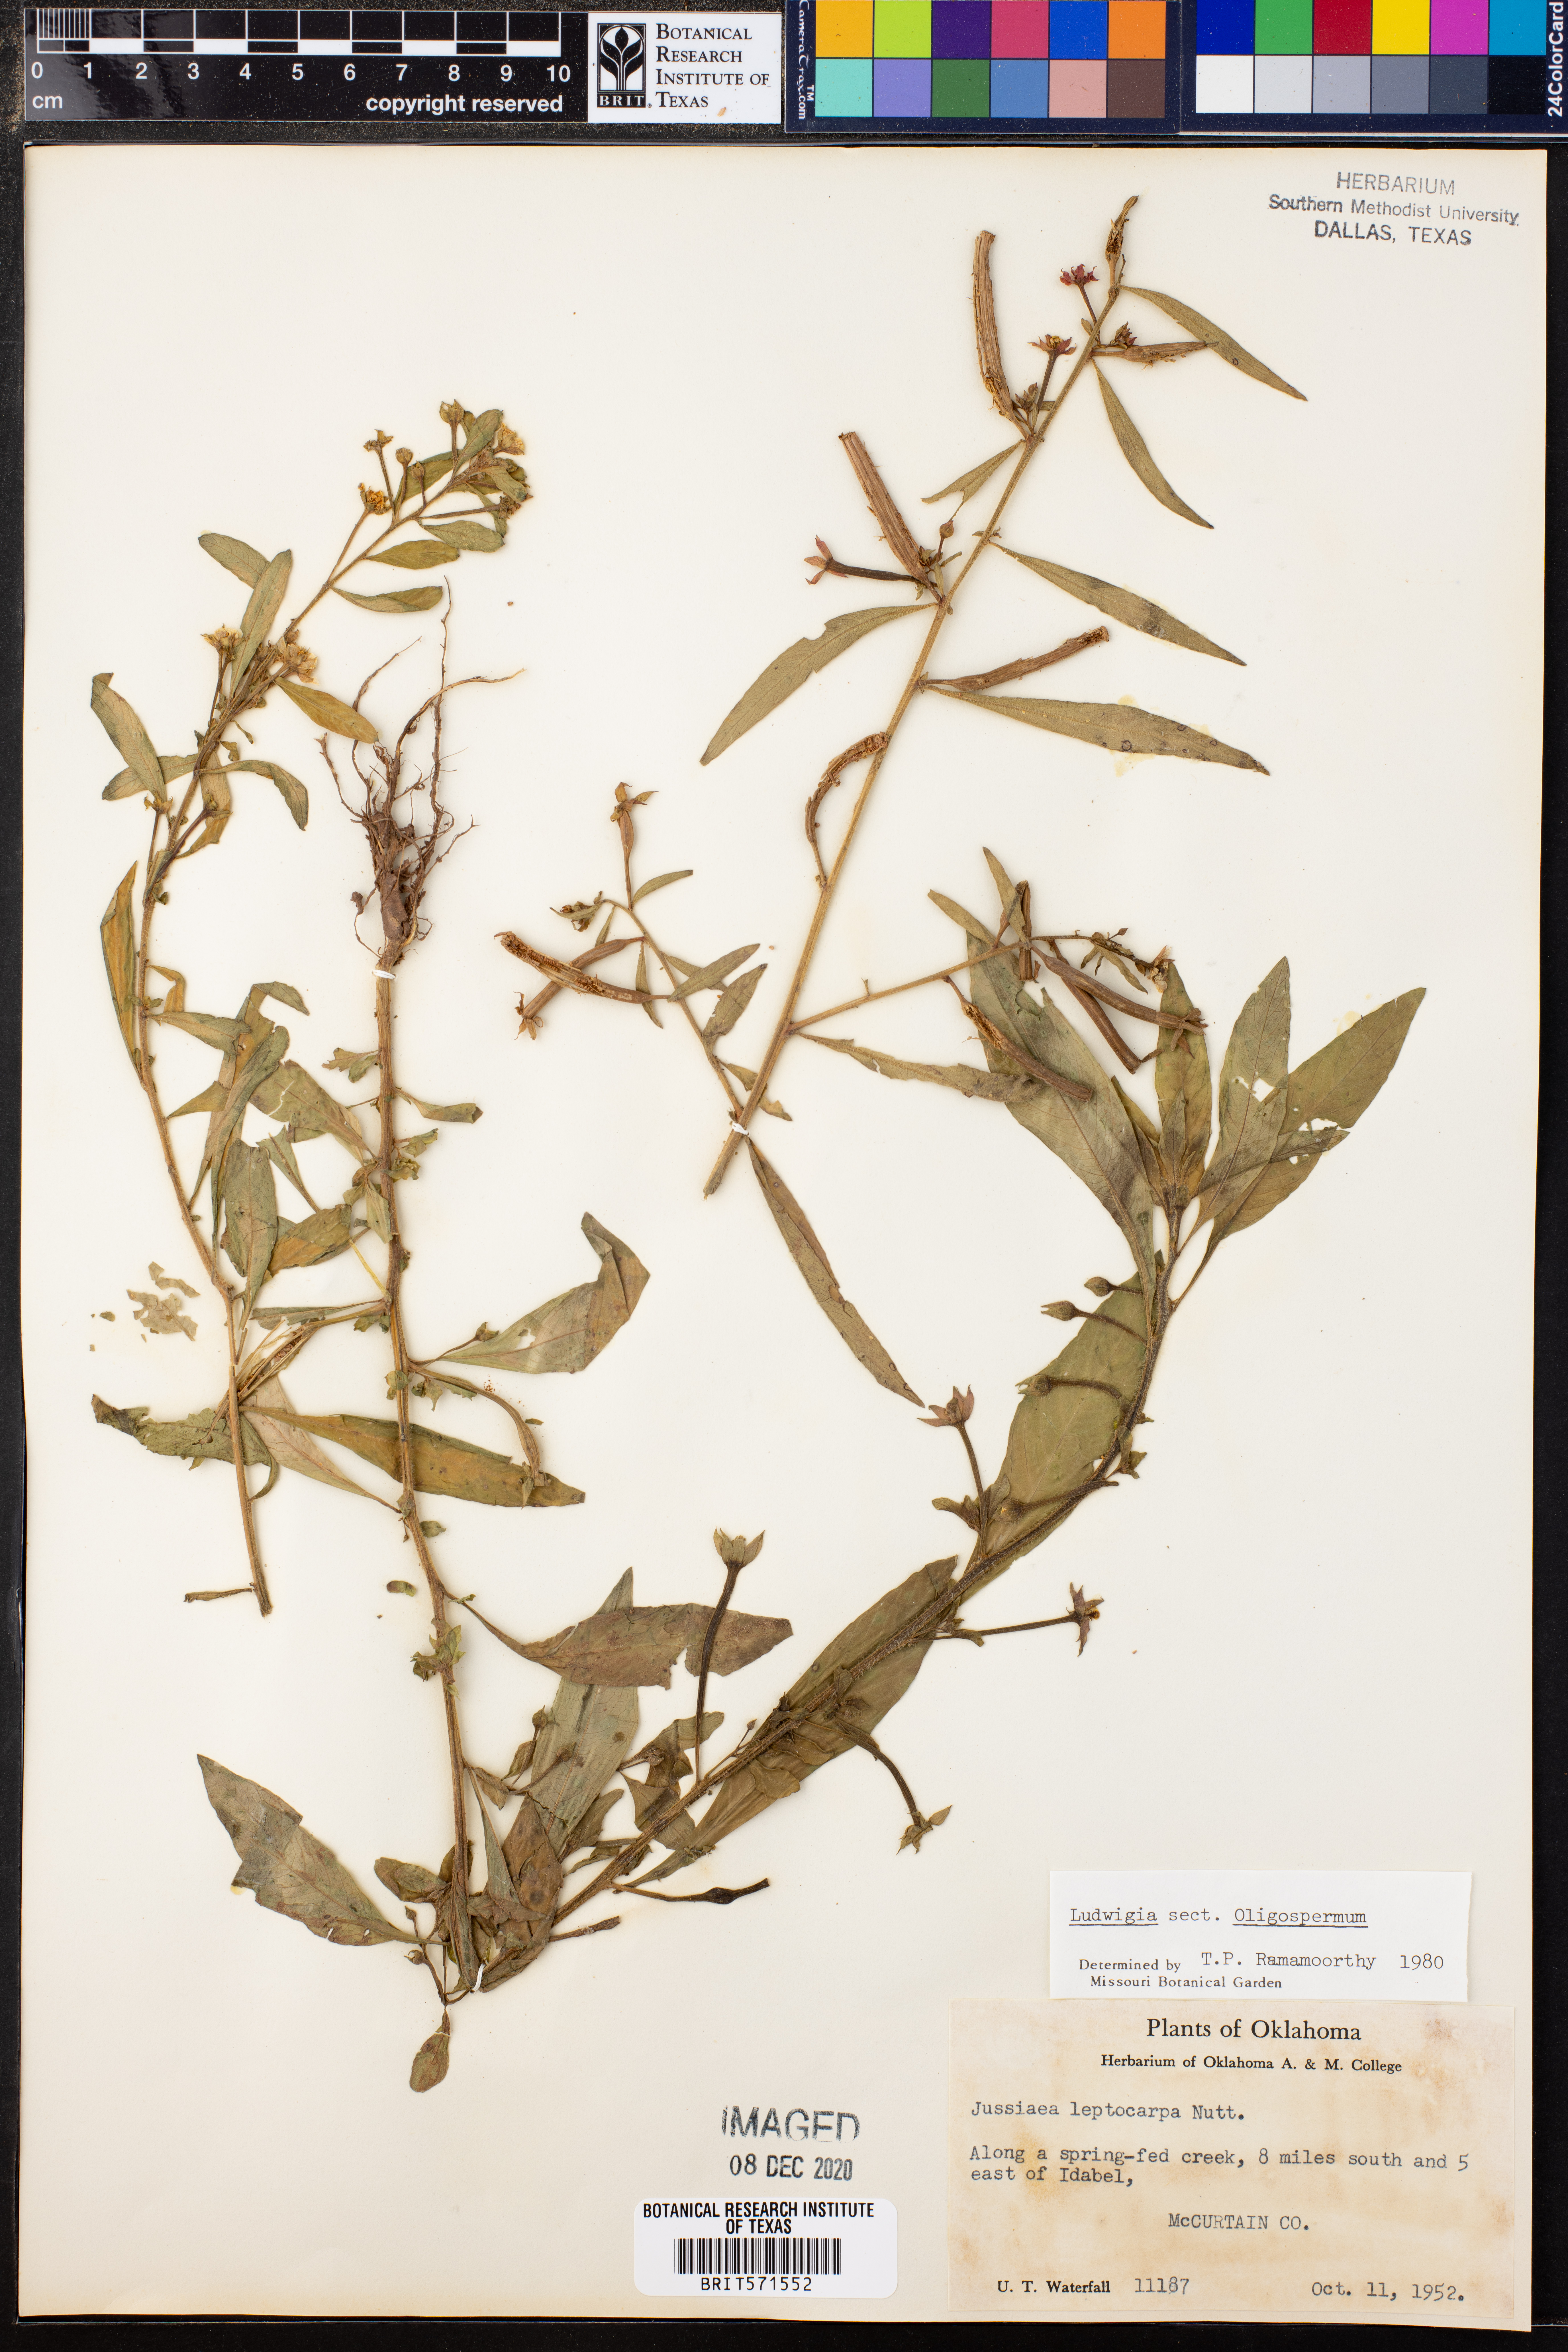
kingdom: Plantae
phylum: Tracheophyta
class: Magnoliopsida
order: Myrtales
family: Onagraceae
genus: Ludwigia
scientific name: Ludwigia
